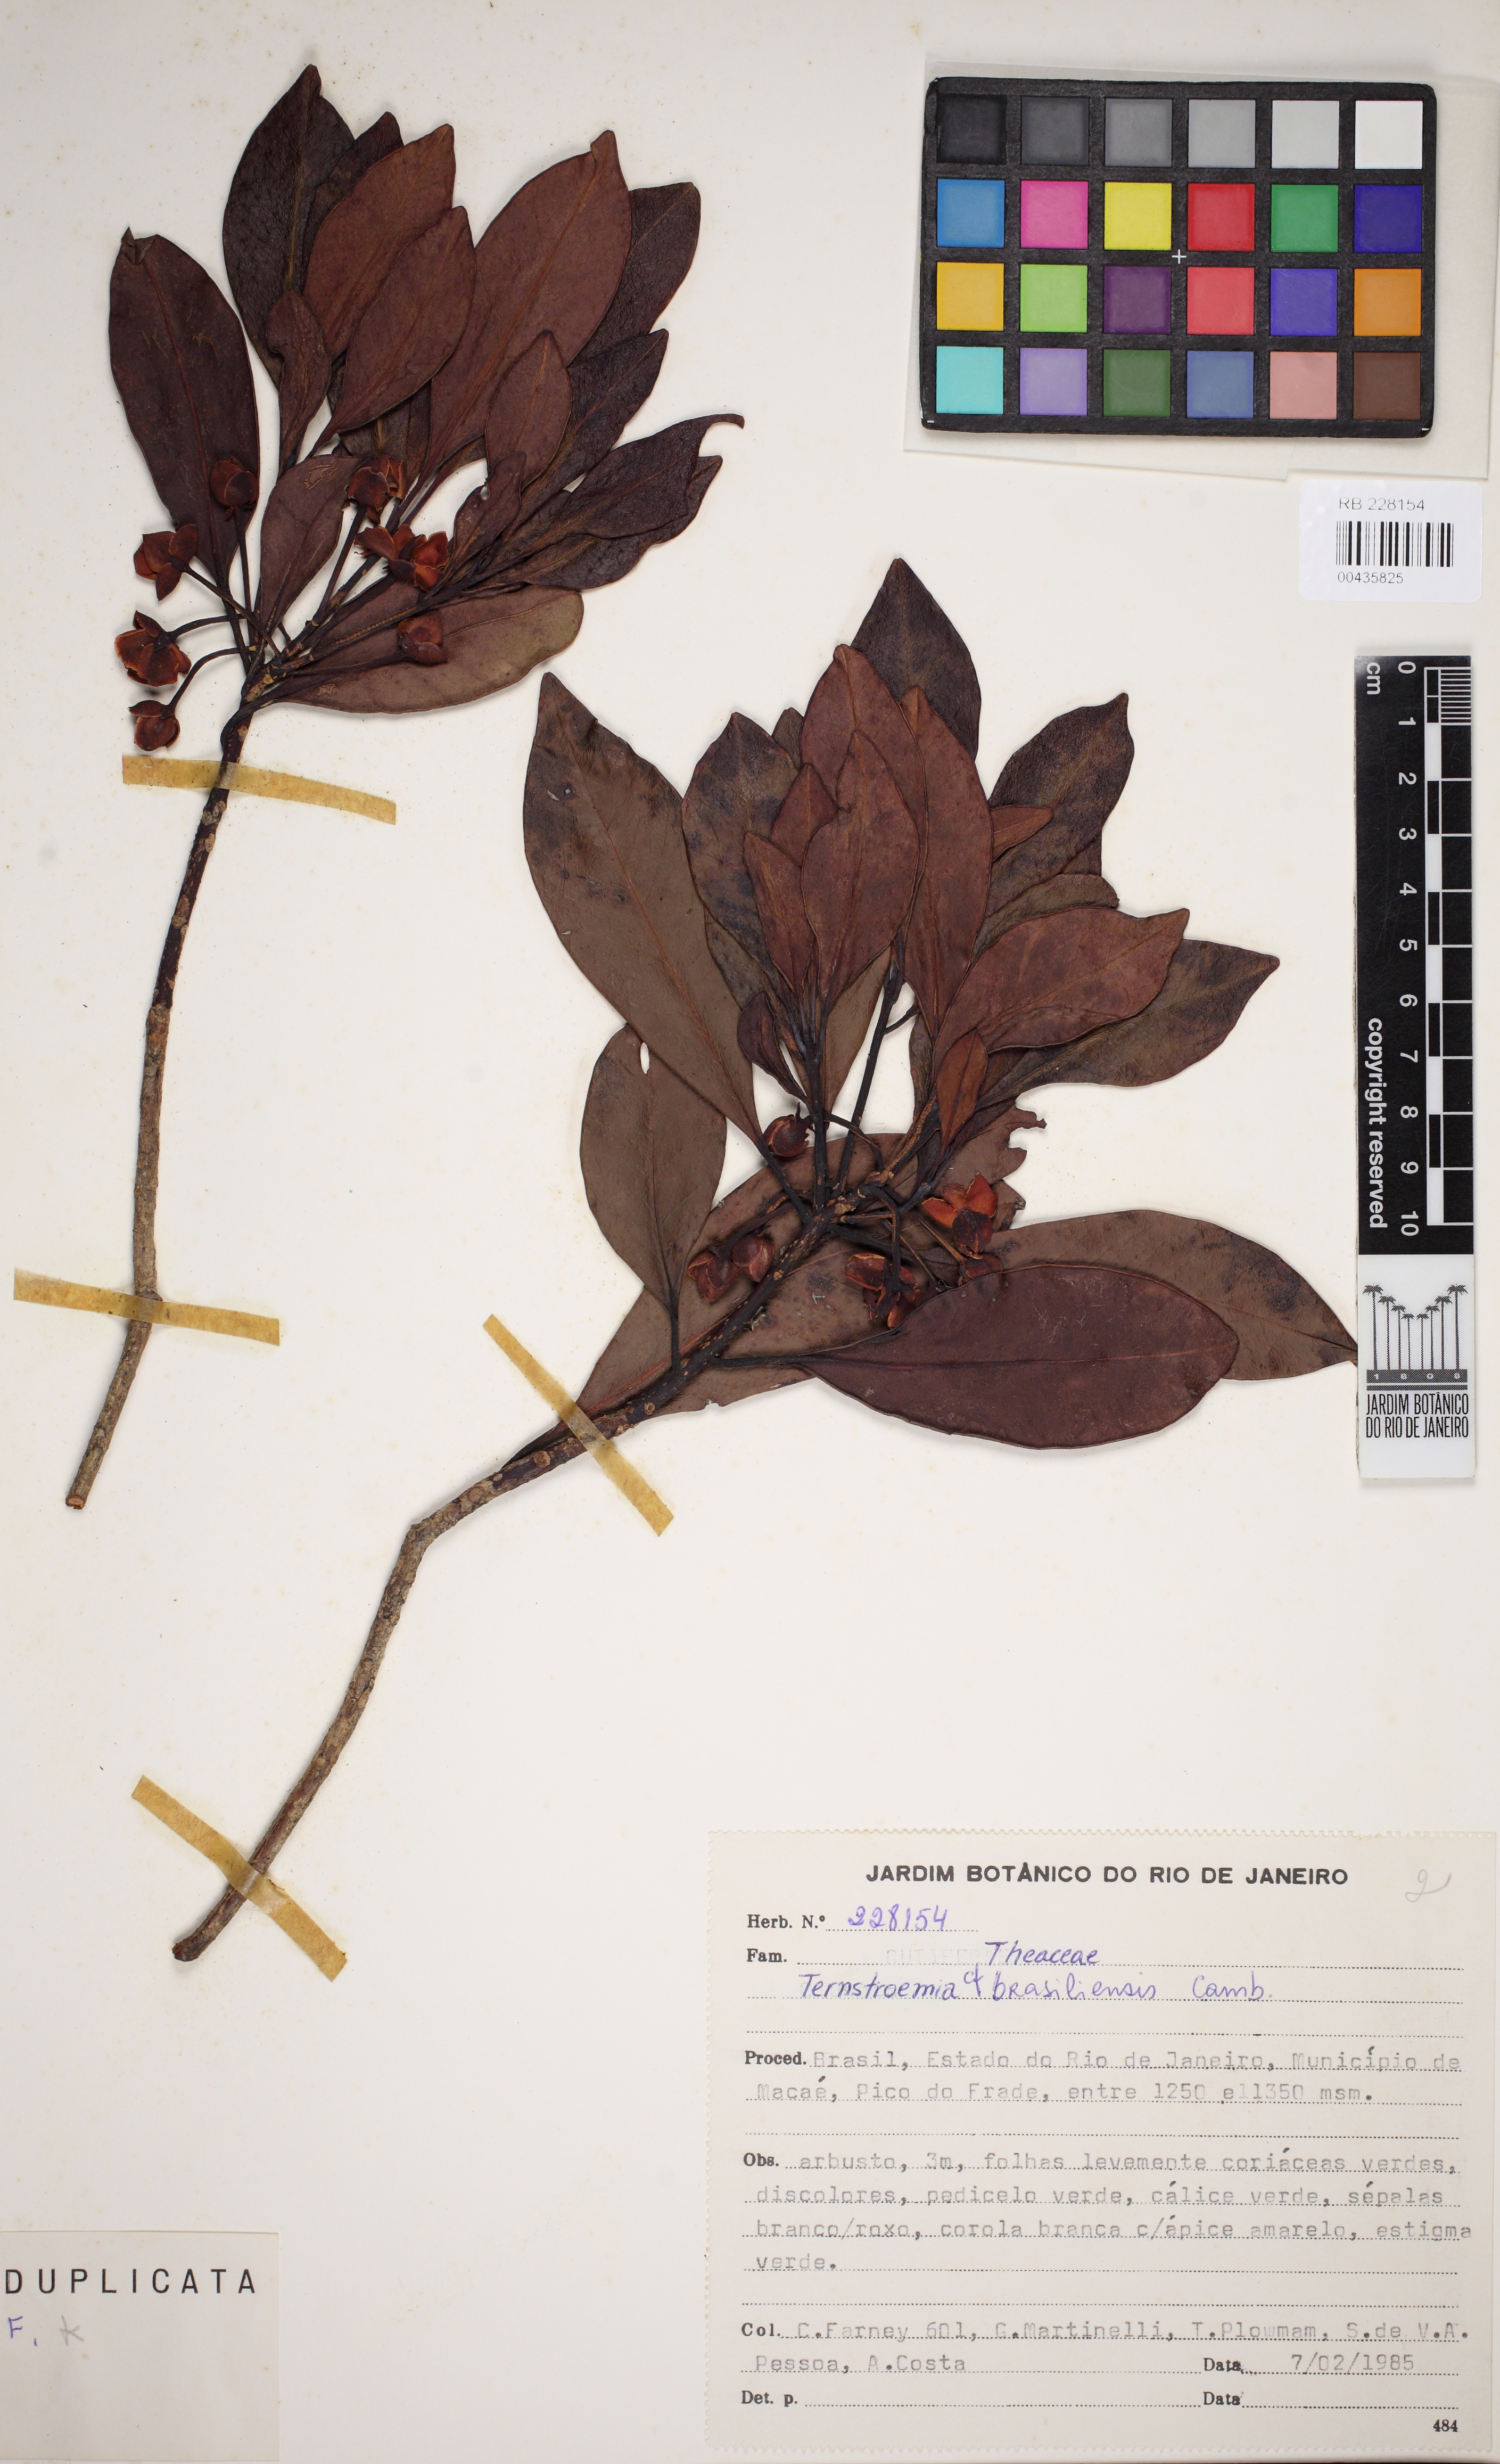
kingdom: Plantae
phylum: Tracheophyta
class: Magnoliopsida
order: Ericales
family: Pentaphylacaceae
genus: Ternstroemia
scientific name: Ternstroemia brasiliensis
